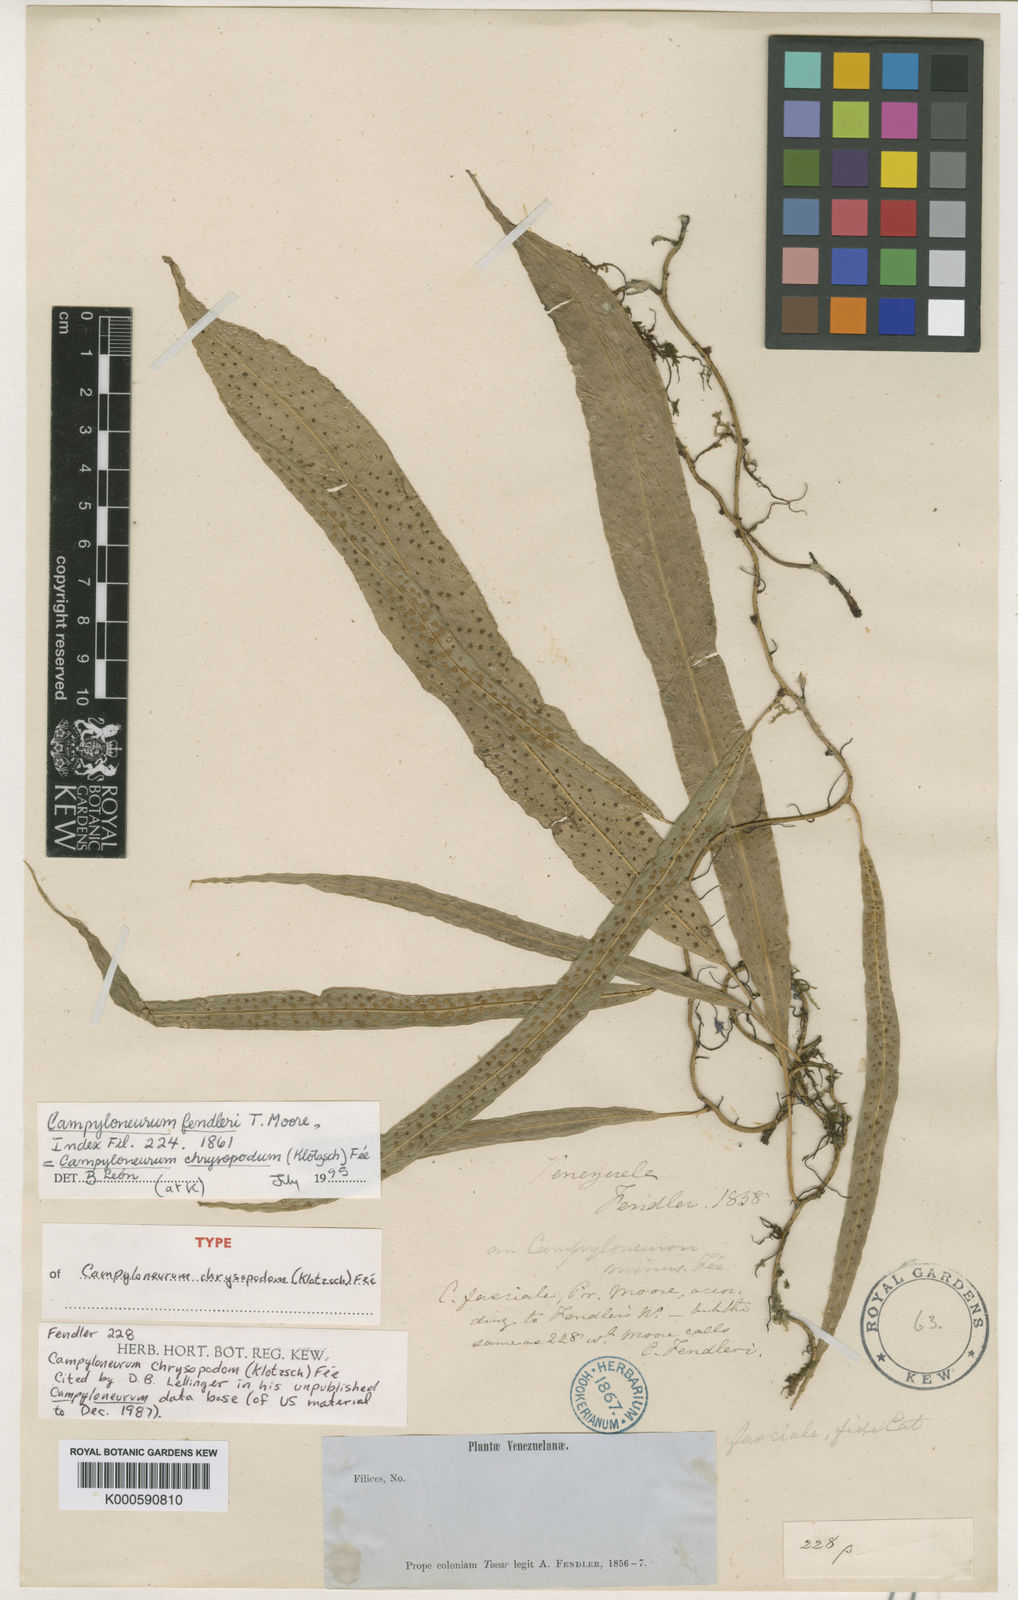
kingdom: Plantae
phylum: Tracheophyta
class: Polypodiopsida
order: Polypodiales
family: Polypodiaceae
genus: Campyloneurum
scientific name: Campyloneurum
